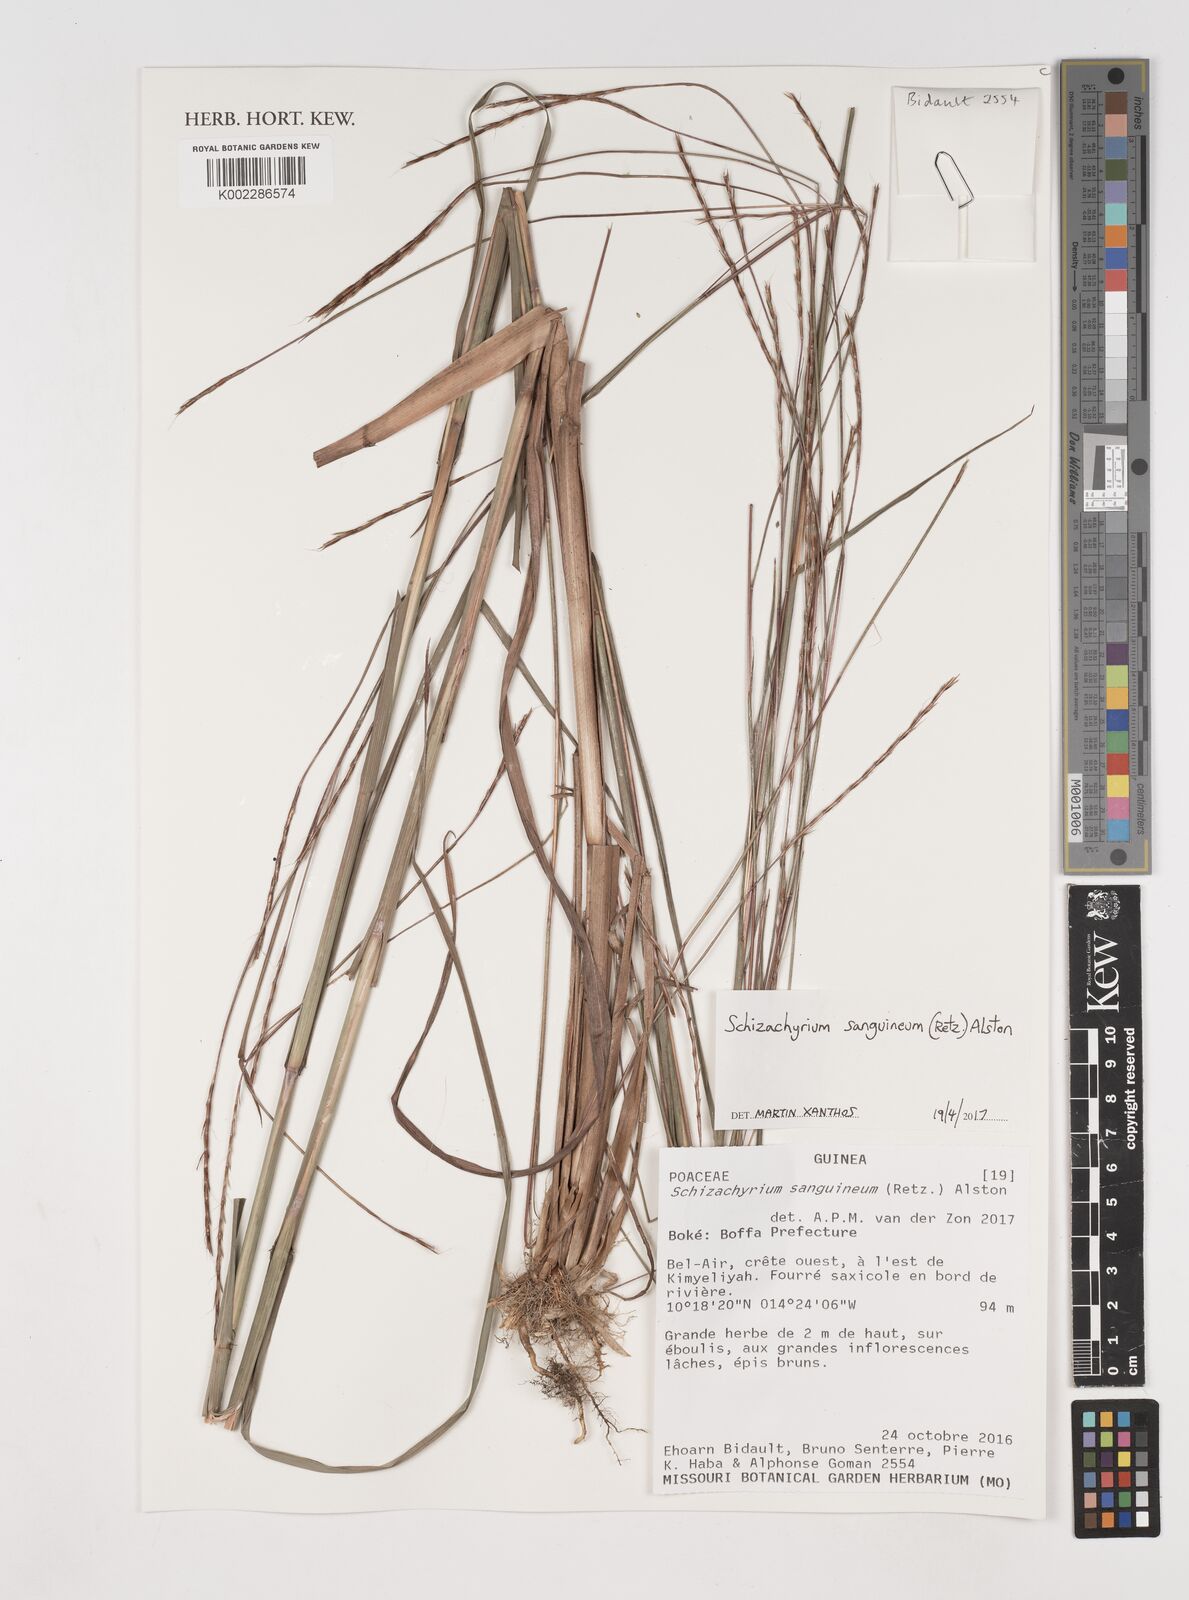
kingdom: Plantae
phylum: Tracheophyta
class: Liliopsida
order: Poales
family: Poaceae
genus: Schizachyrium
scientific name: Schizachyrium sanguineum
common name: Crimson bluestem
